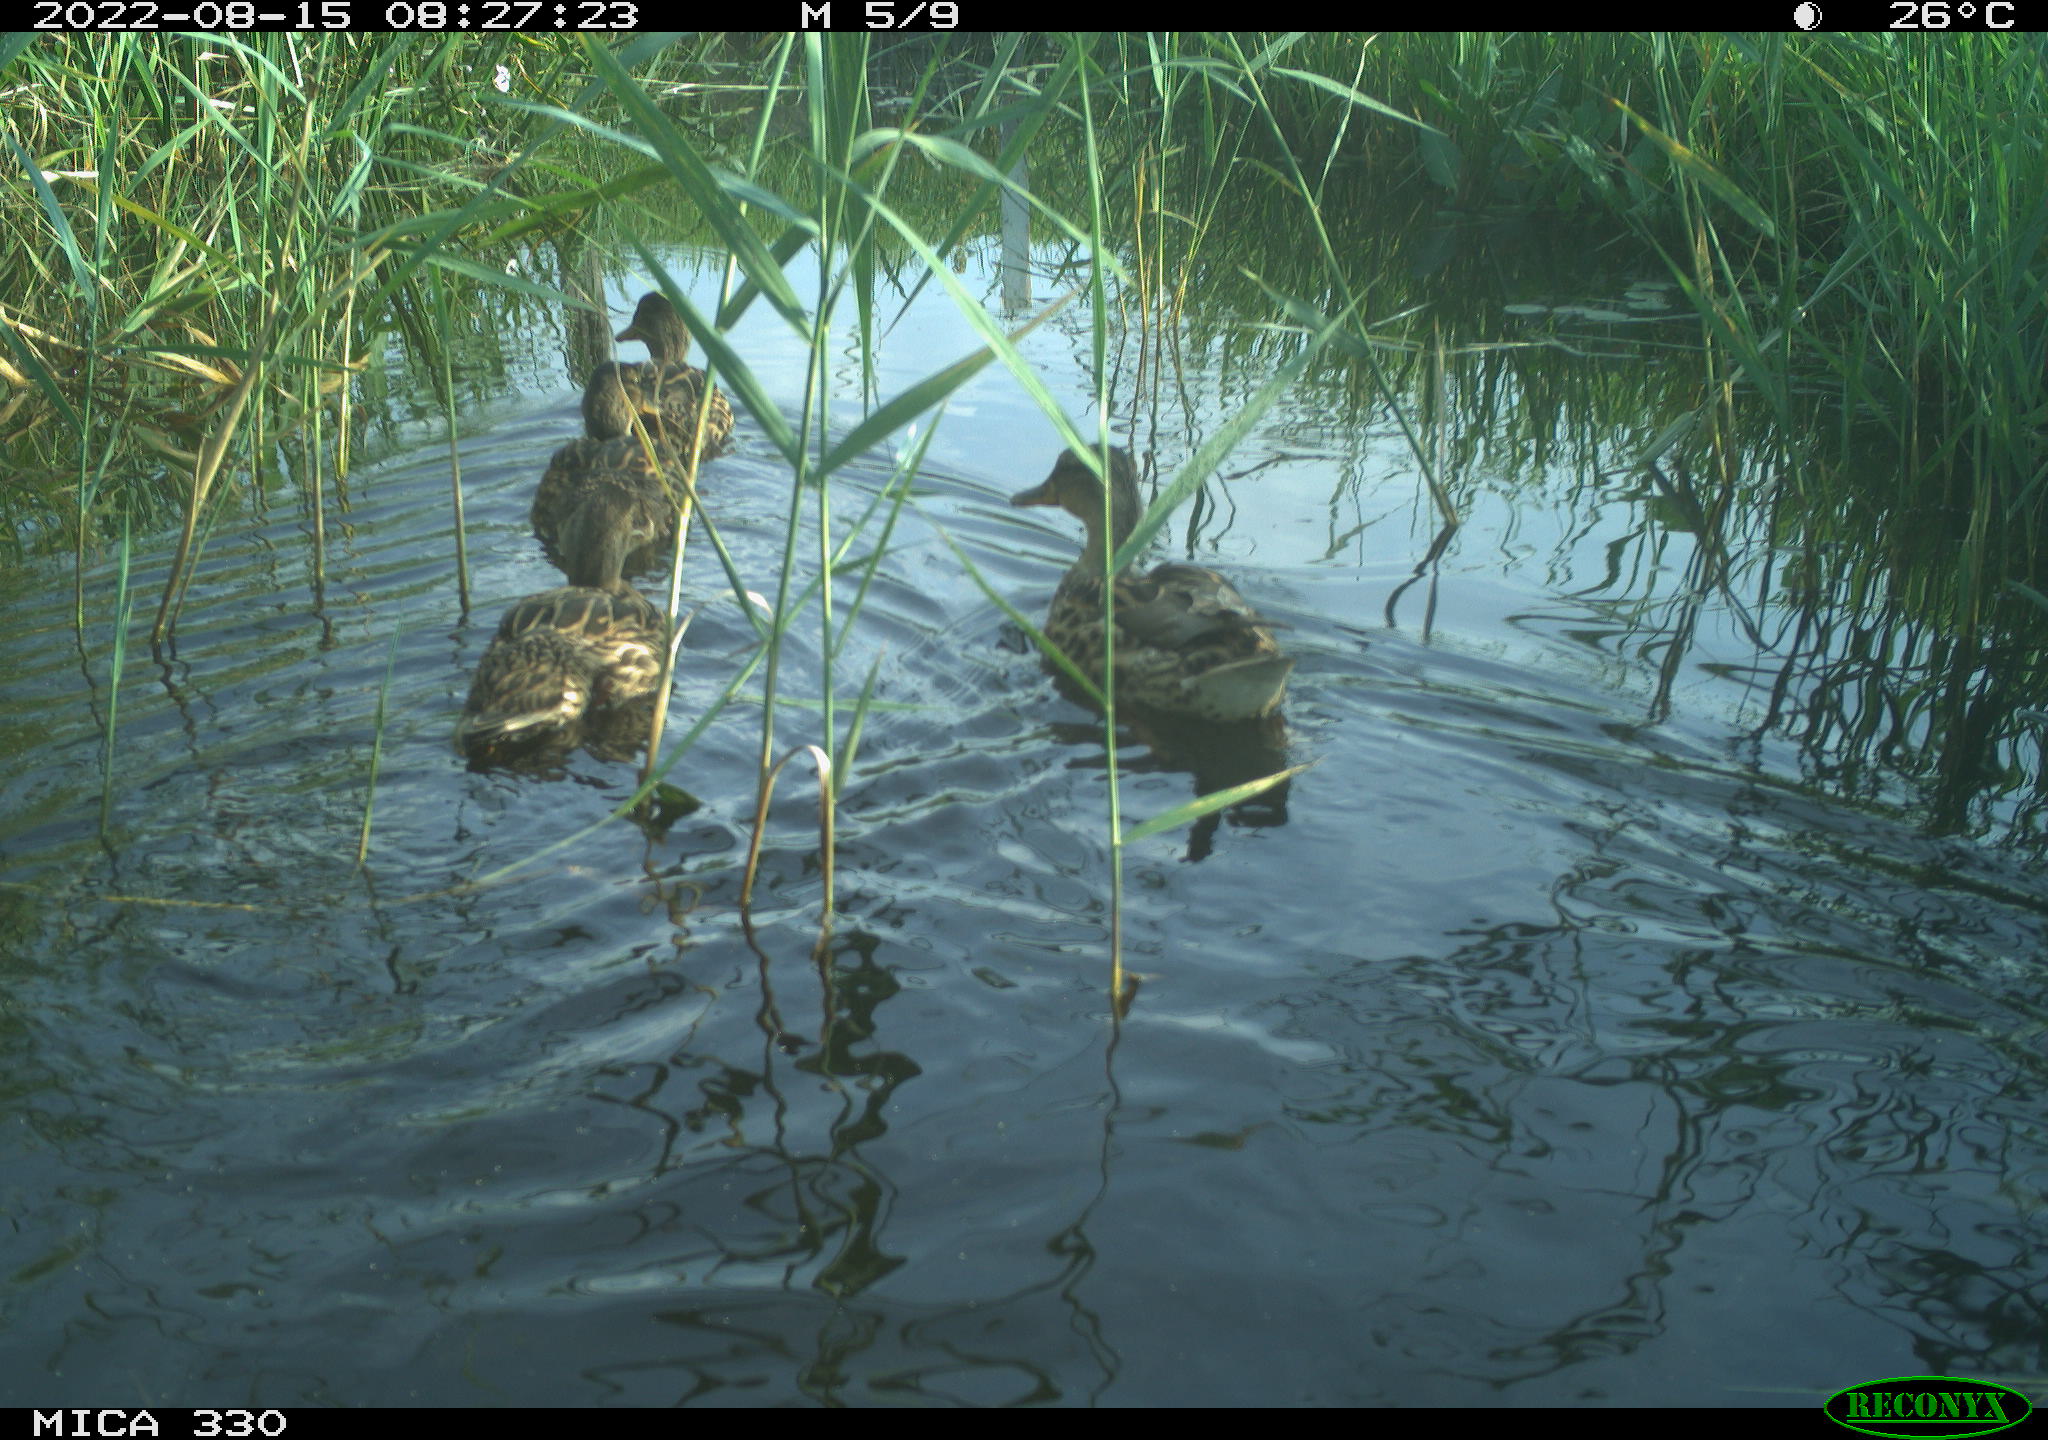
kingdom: Animalia
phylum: Chordata
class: Aves
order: Anseriformes
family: Anatidae
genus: Anas
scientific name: Anas platyrhynchos
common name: Mallard
